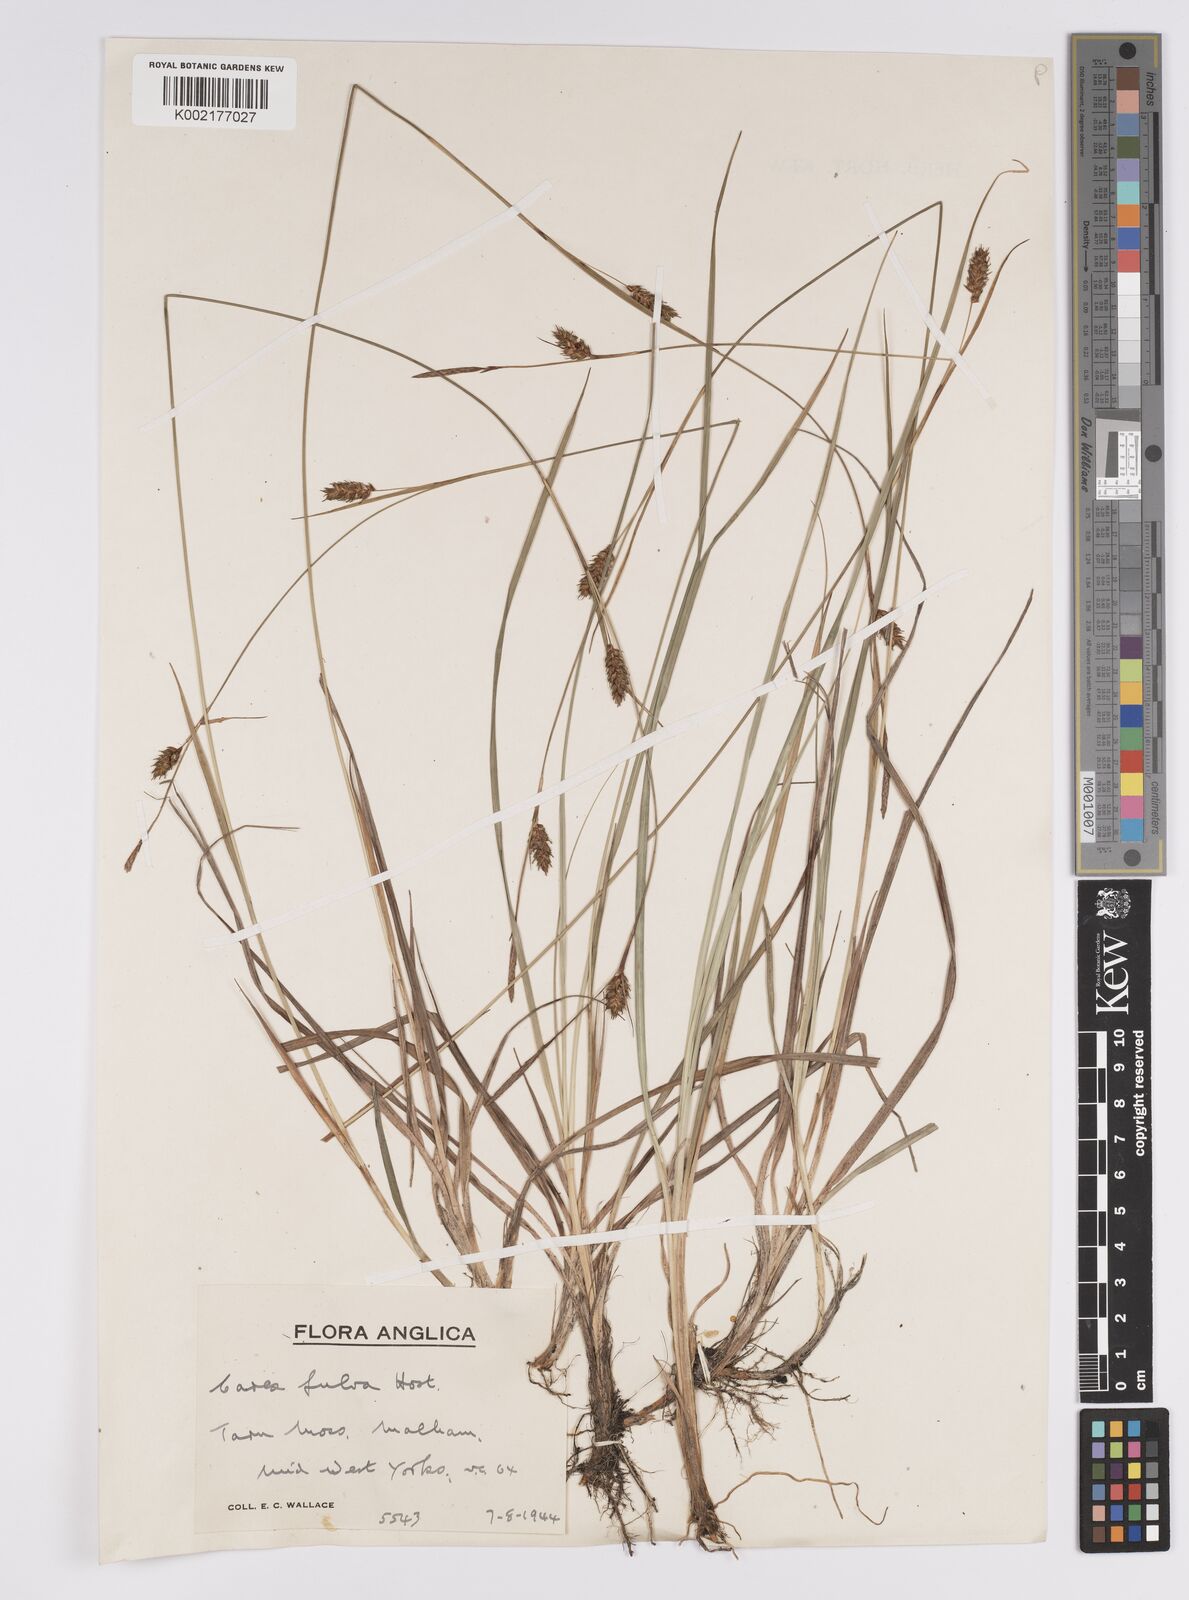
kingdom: Plantae
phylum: Tracheophyta
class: Liliopsida
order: Poales
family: Cyperaceae
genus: Carex
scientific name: Carex hostiana
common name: Tawny sedge
